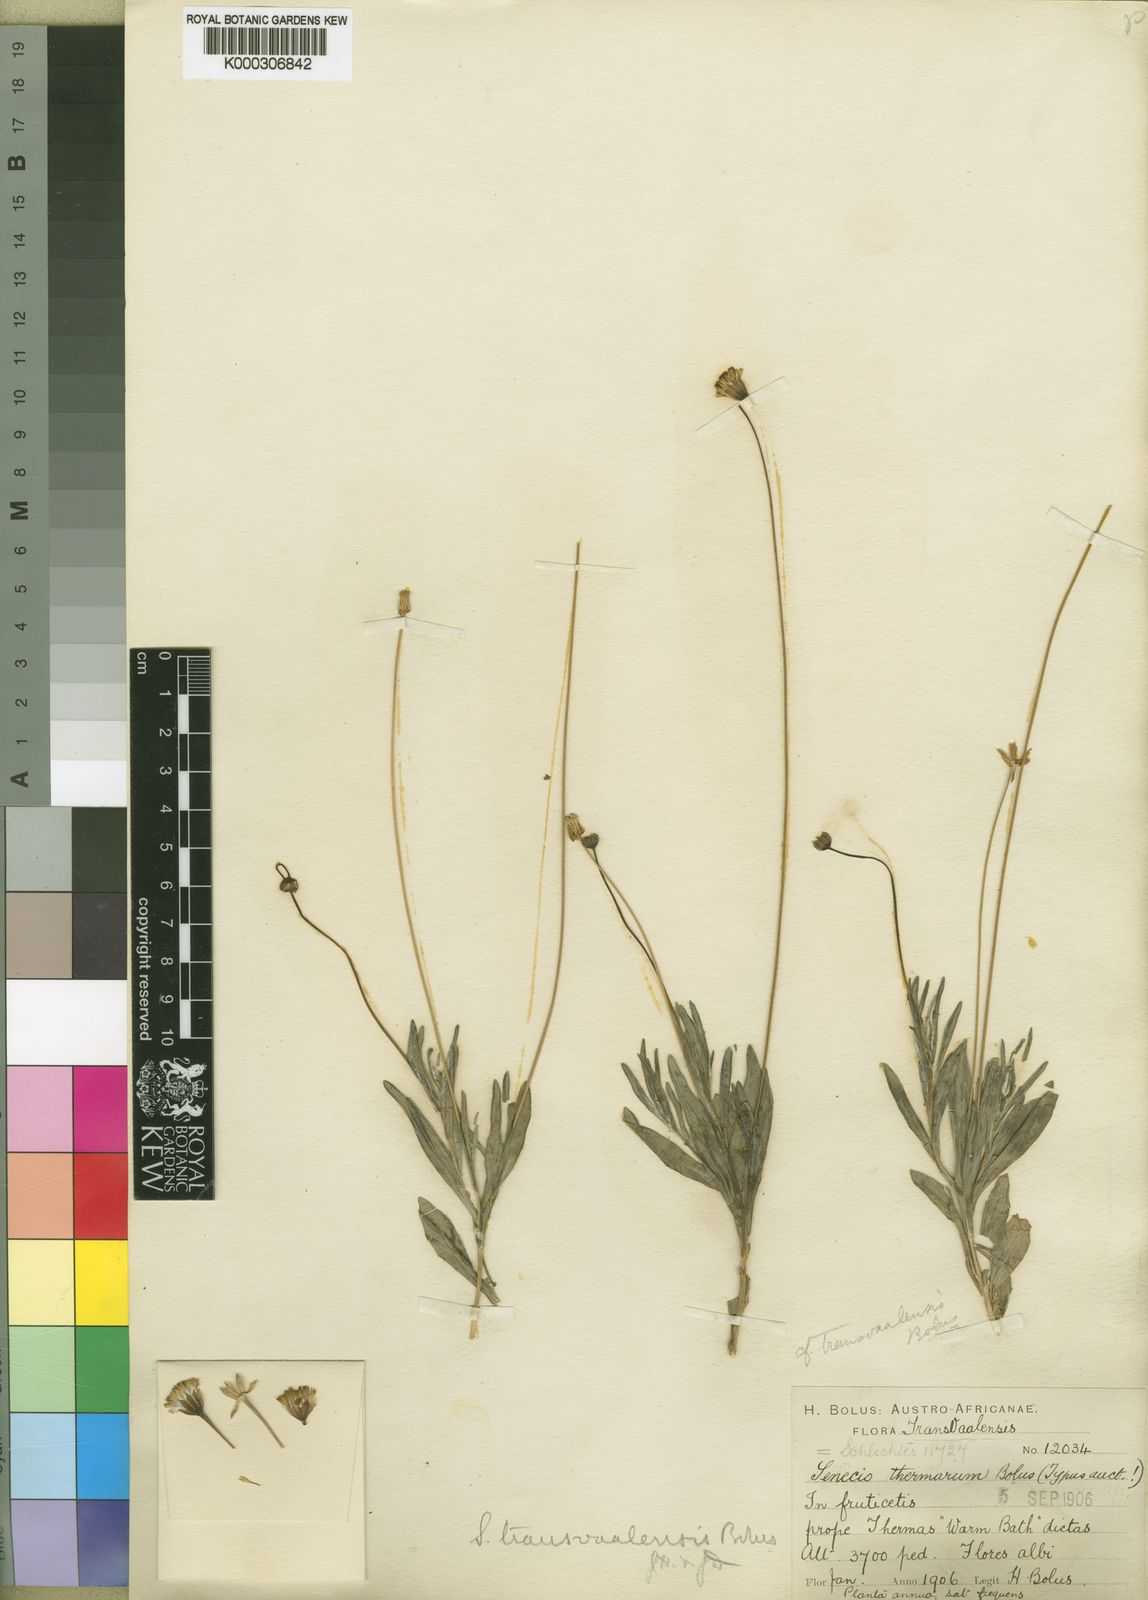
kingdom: Plantae
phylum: Tracheophyta
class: Magnoliopsida
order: Asterales
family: Asteraceae
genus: Emilia
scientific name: Emilia protracta
